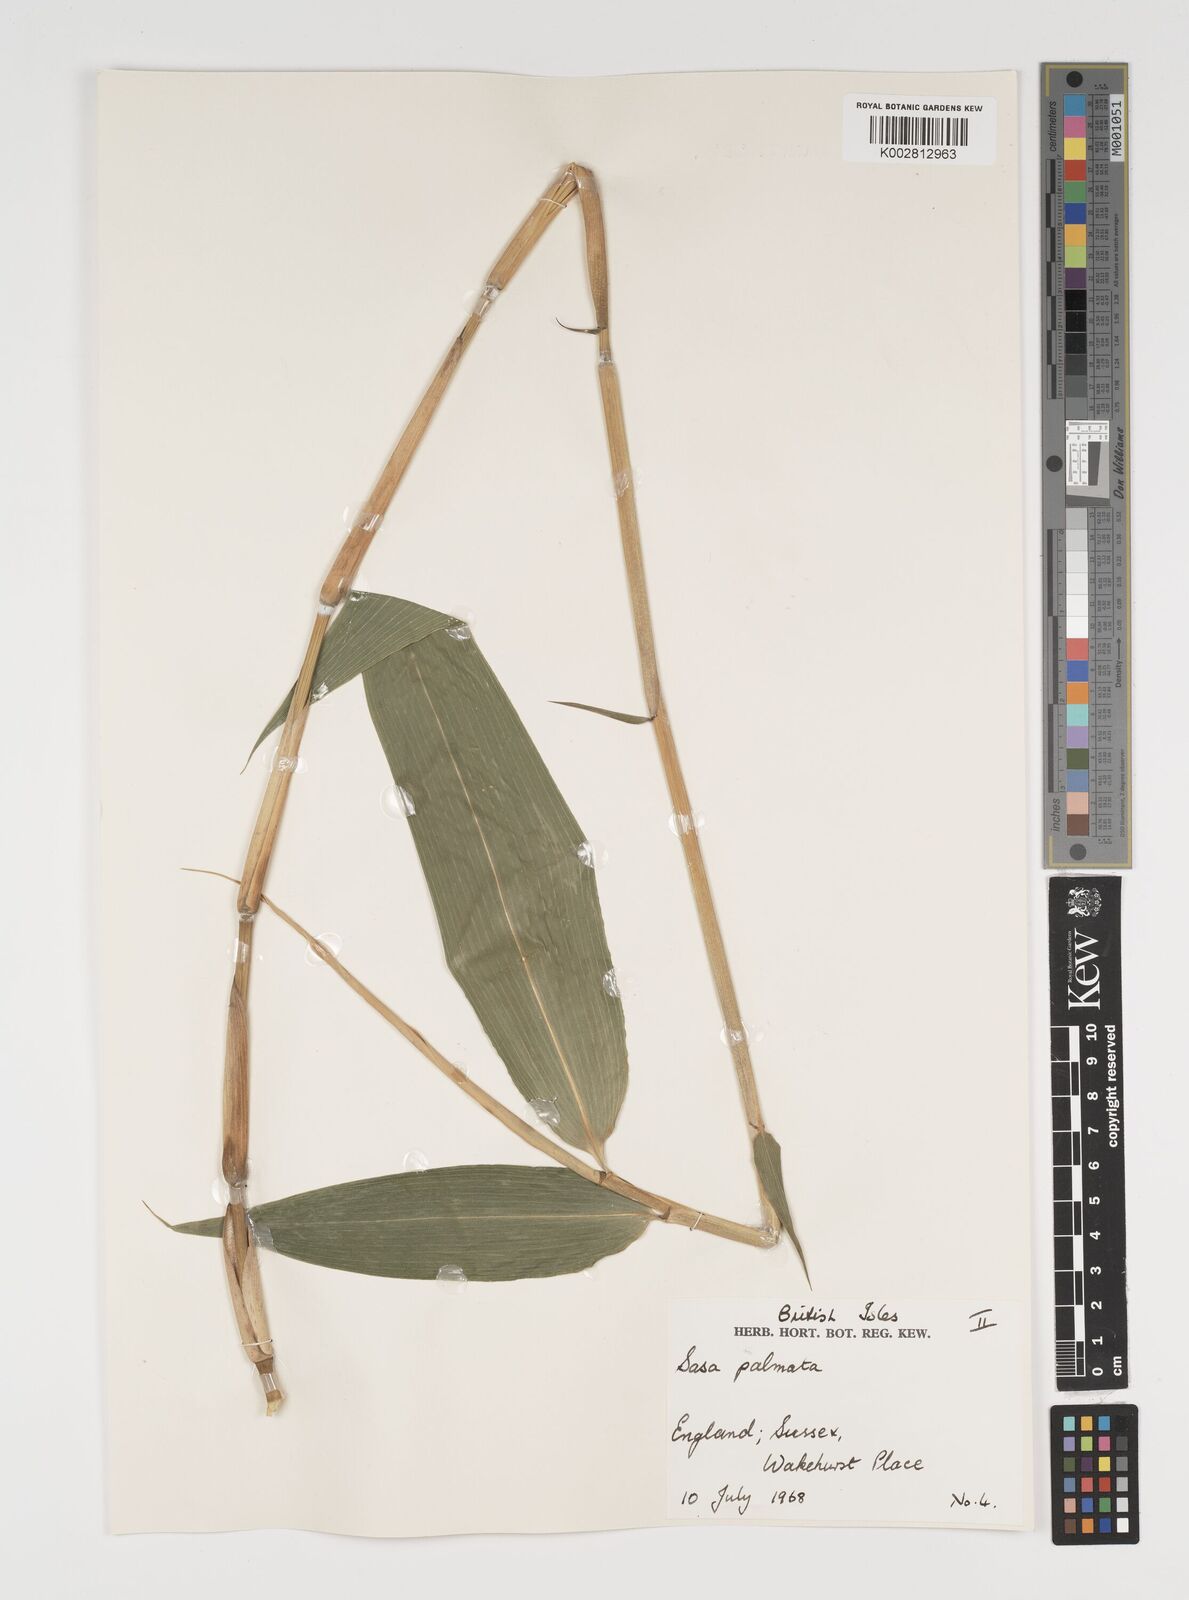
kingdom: Plantae
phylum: Tracheophyta
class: Liliopsida
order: Poales
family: Poaceae
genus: Sasa
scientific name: Sasa palmata
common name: Broad-leaved bamboo
